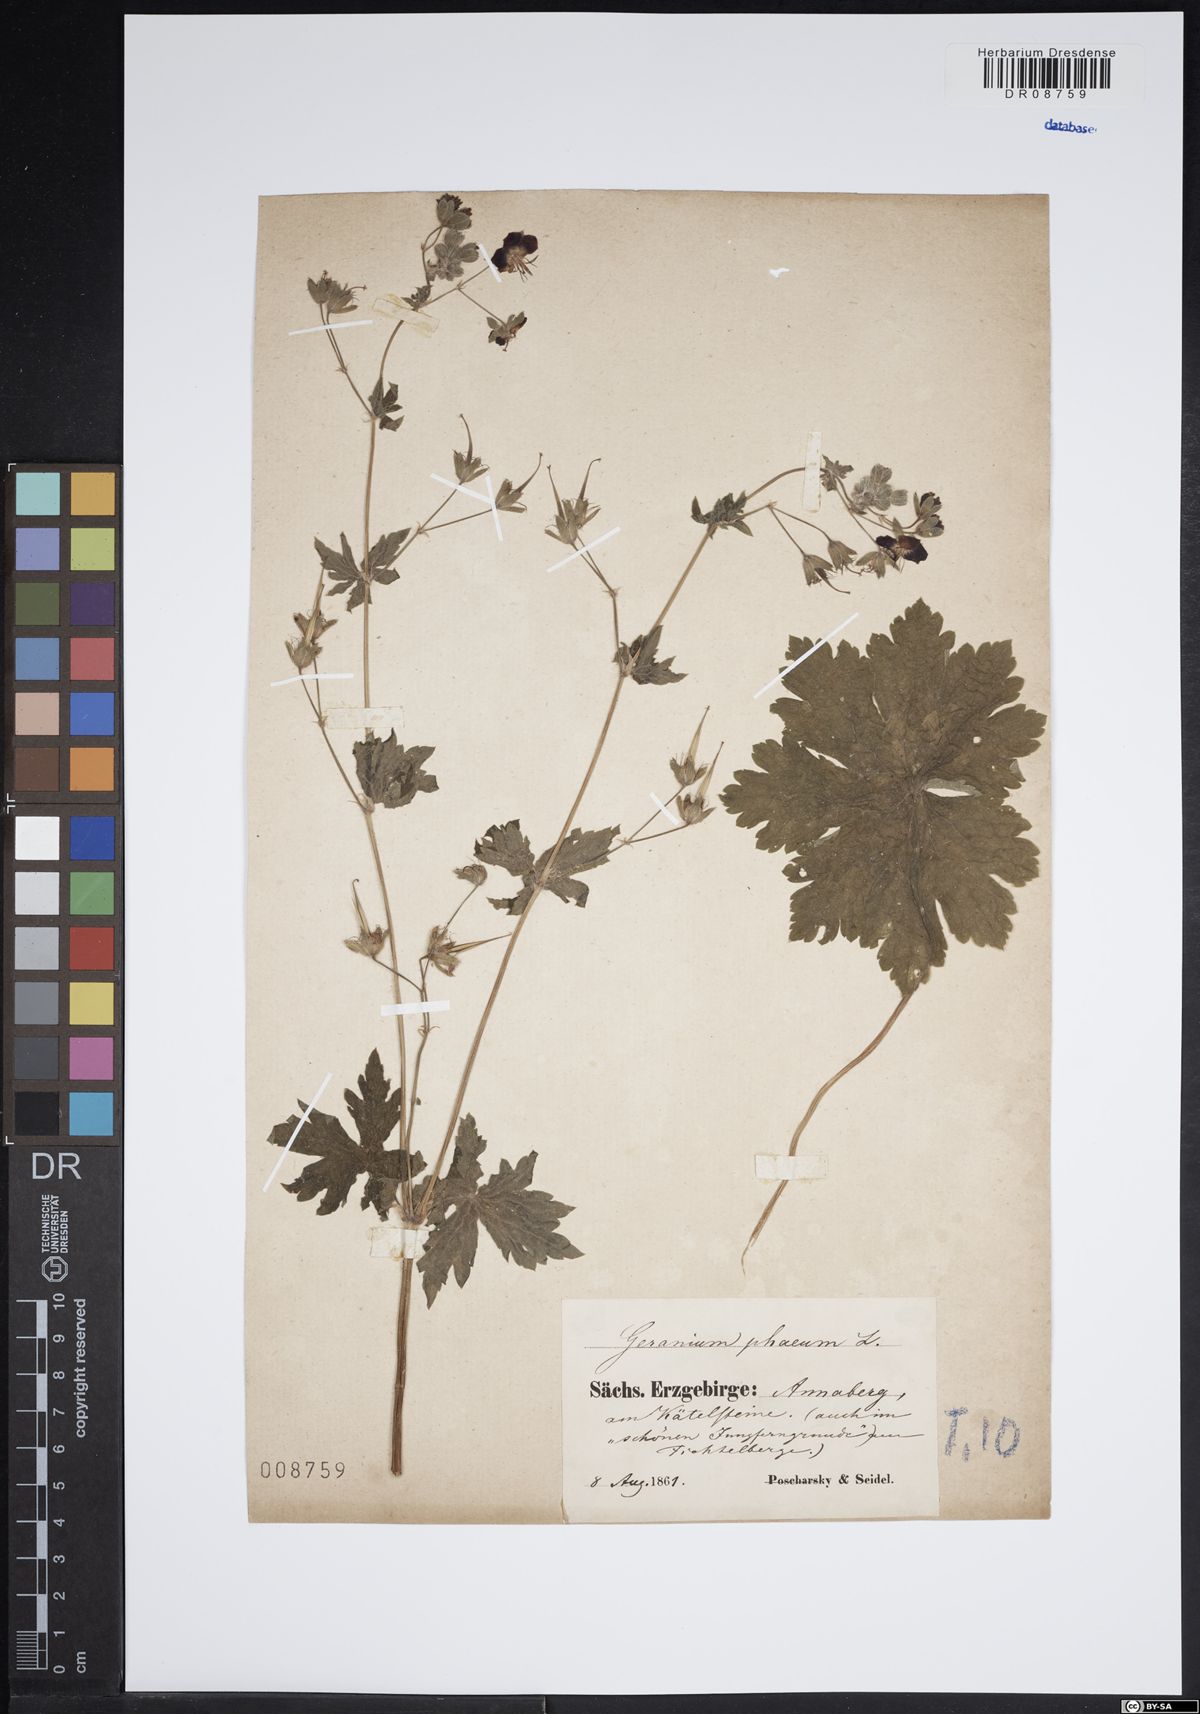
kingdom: Plantae
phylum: Tracheophyta
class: Magnoliopsida
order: Geraniales
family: Geraniaceae
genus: Geranium
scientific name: Geranium phaeum
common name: Dusky crane's-bill
